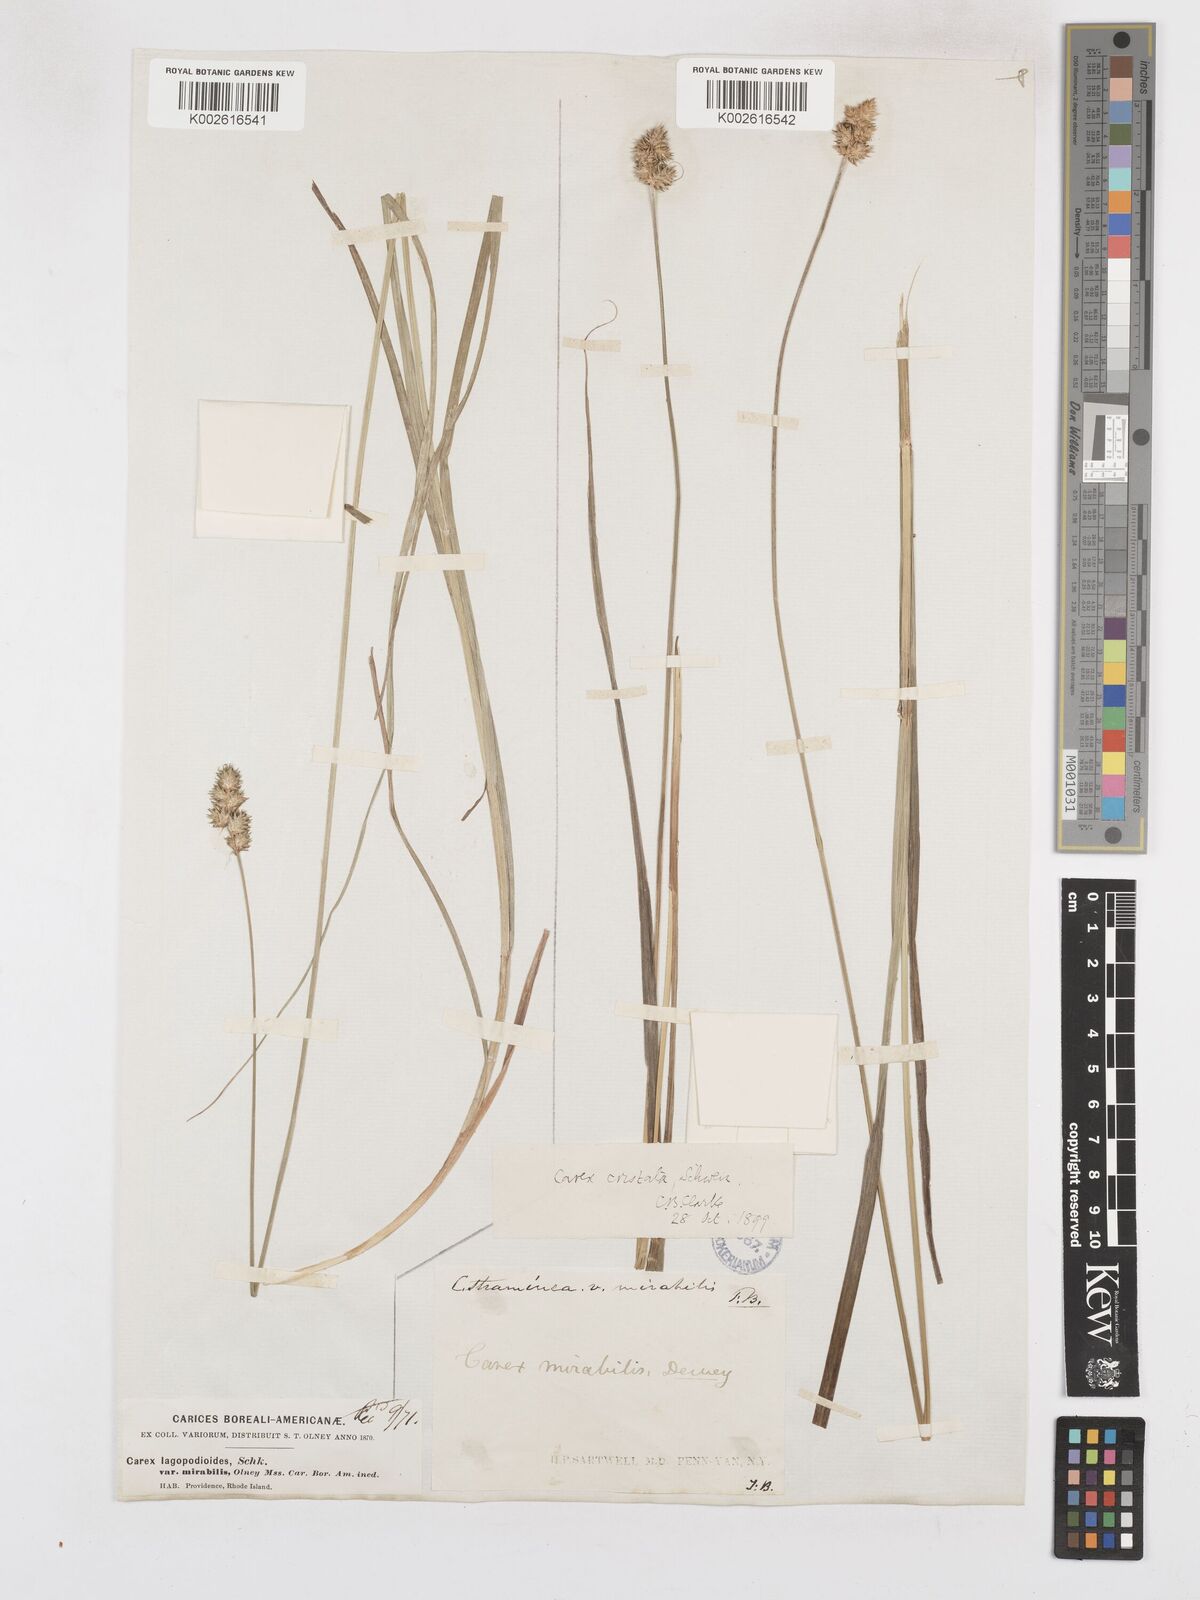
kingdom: Plantae
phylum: Tracheophyta
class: Liliopsida
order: Poales
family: Cyperaceae
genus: Carex
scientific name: Carex cristatella
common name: Crested oval sedge
